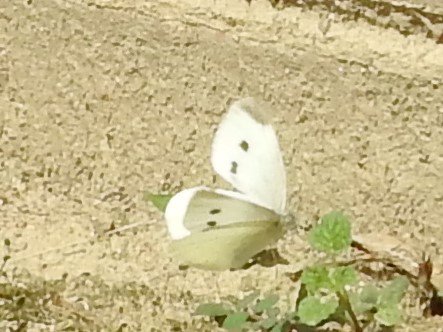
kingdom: Animalia
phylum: Arthropoda
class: Insecta
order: Lepidoptera
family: Pieridae
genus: Pieris
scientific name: Pieris rapae
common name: Cabbage White
